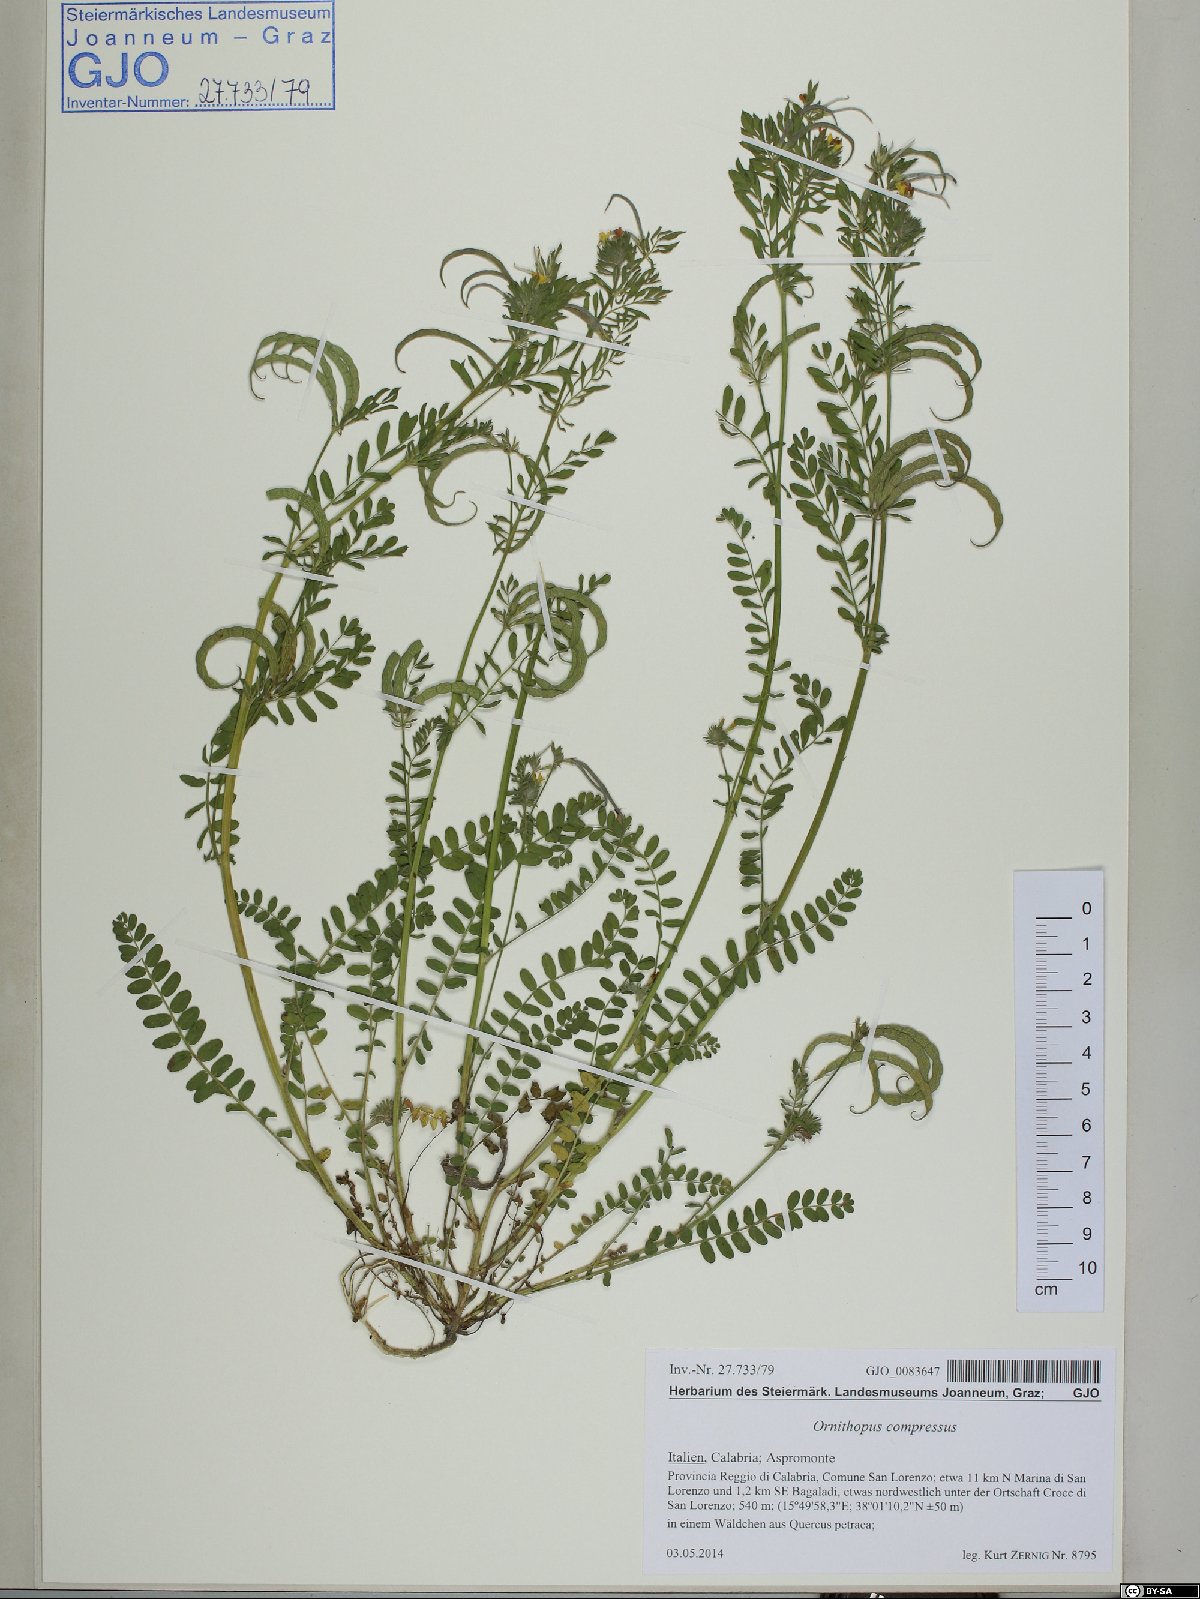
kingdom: Plantae
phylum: Tracheophyta
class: Magnoliopsida
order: Fabales
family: Fabaceae
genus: Ornithopus
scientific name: Ornithopus compressus
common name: Yellow serradella
